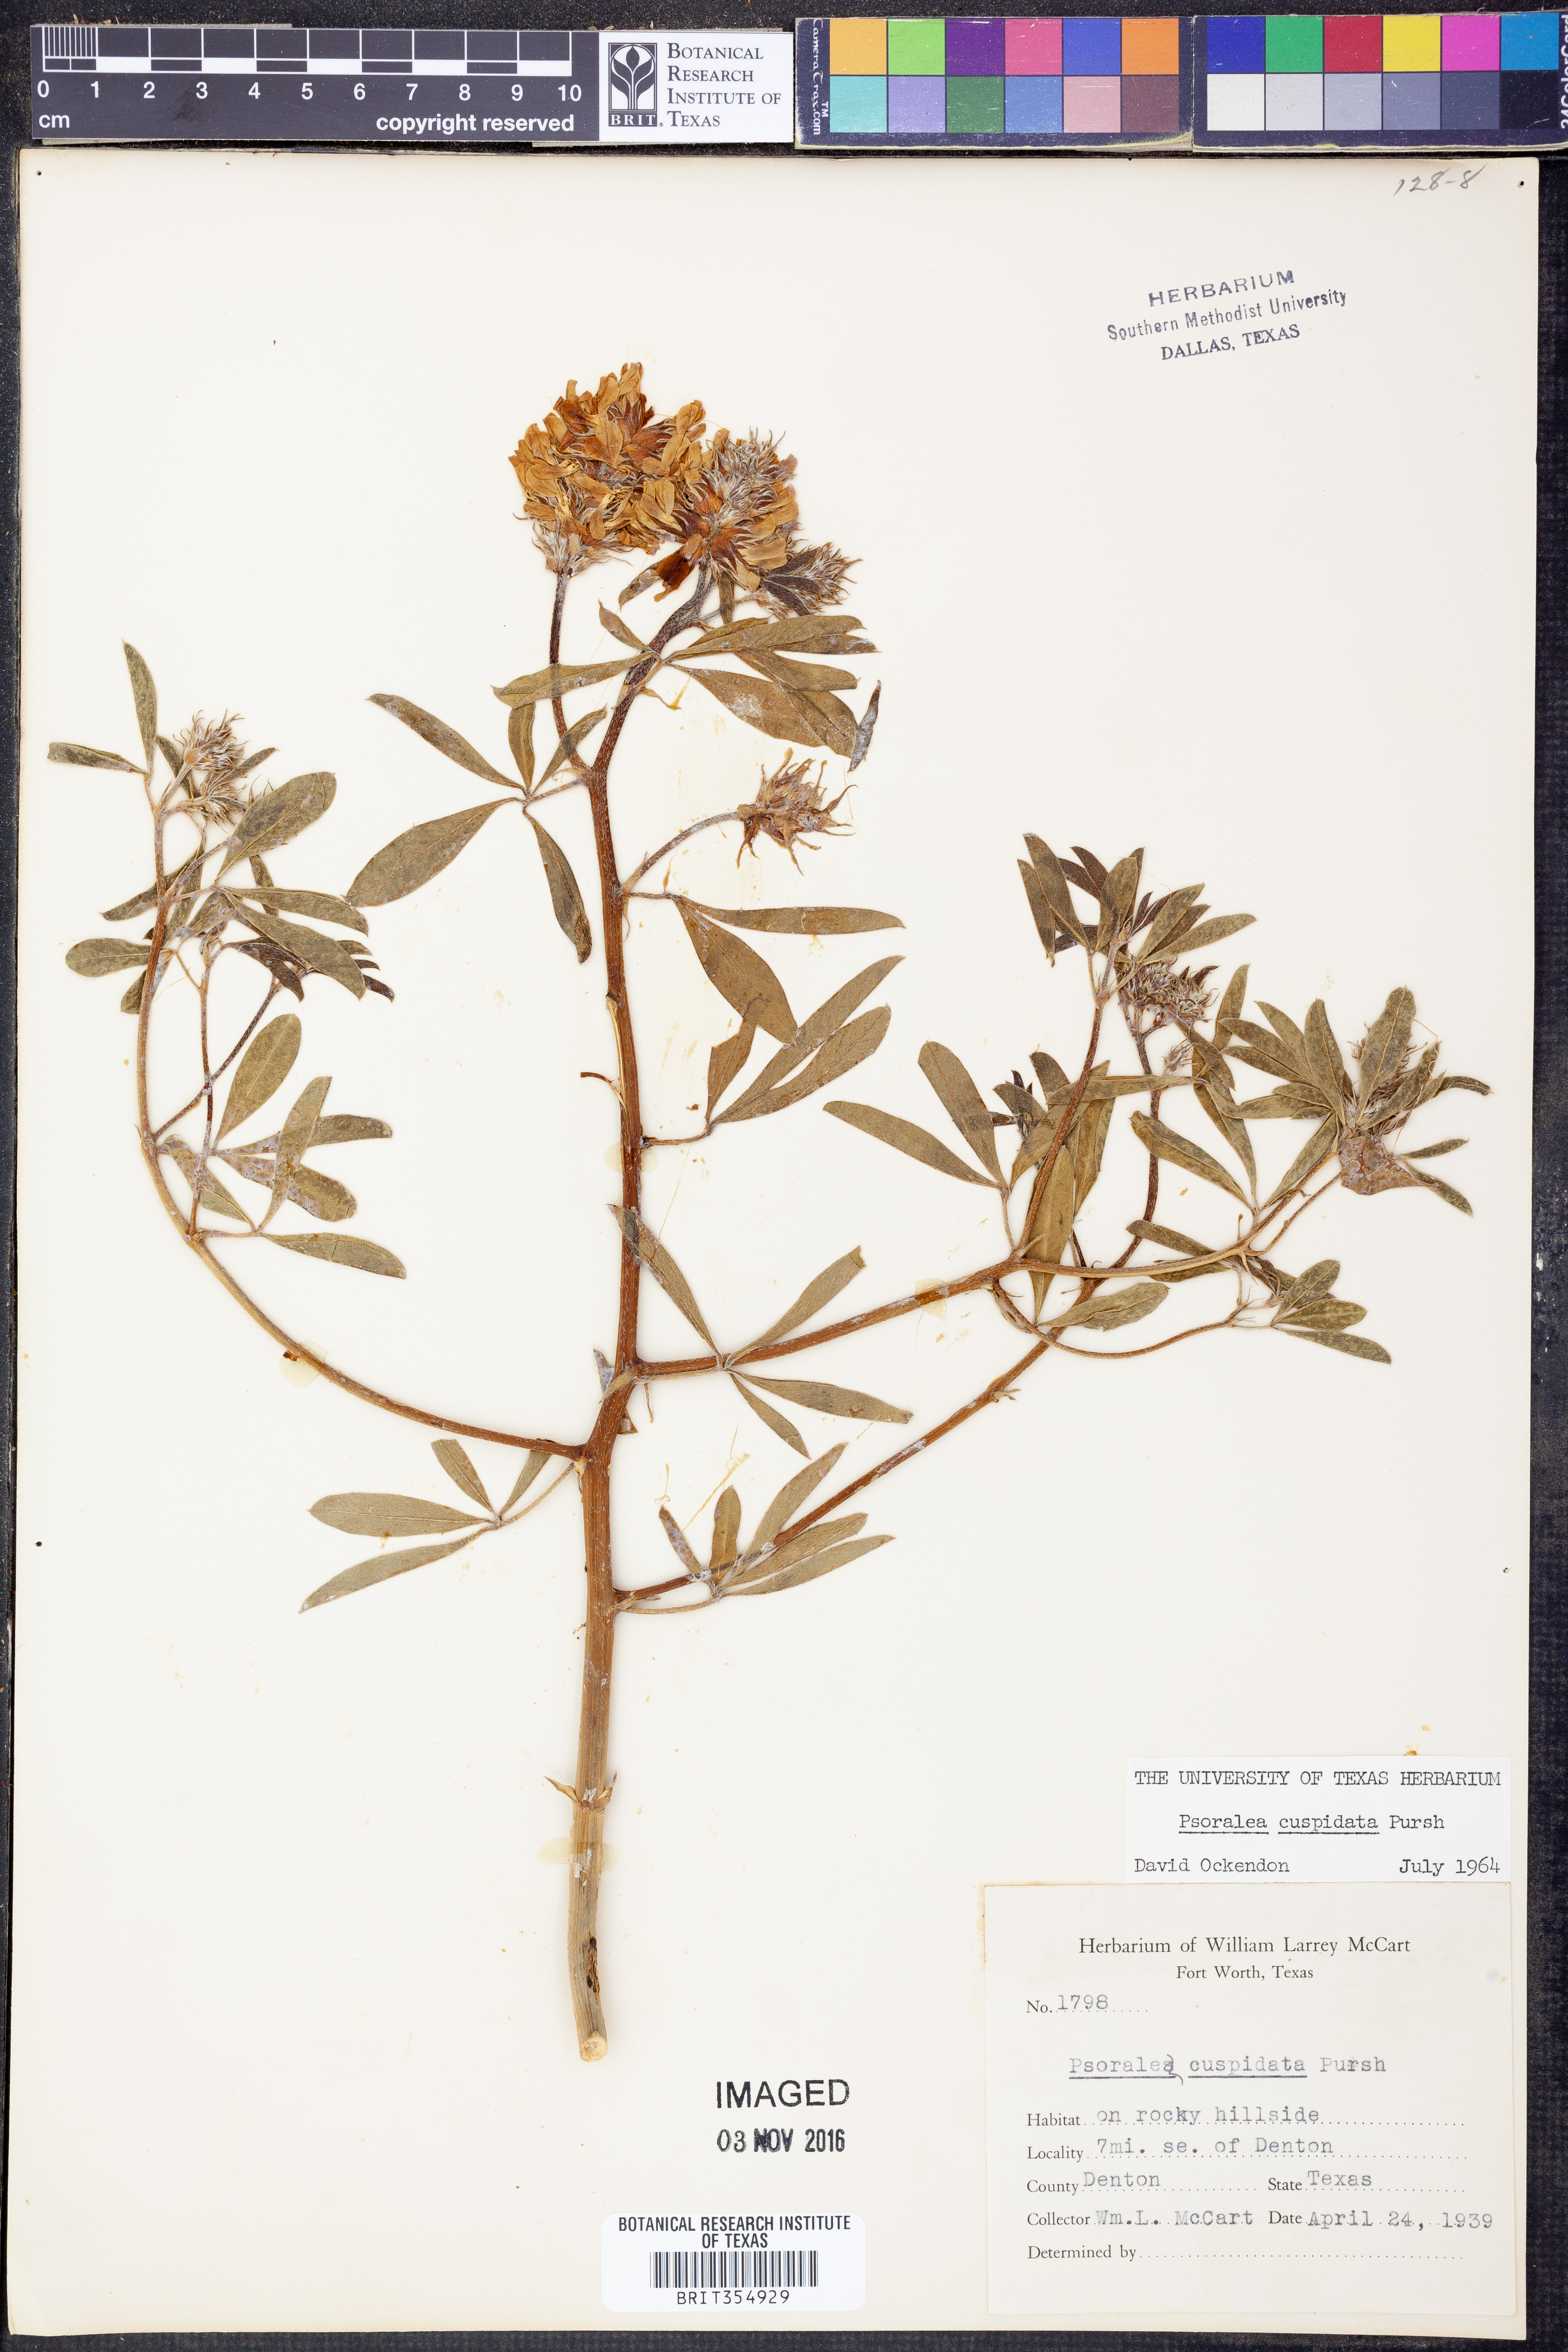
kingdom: Plantae
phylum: Tracheophyta
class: Magnoliopsida
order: Fabales
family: Fabaceae
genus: Pediomelum
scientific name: Pediomelum cuspidatum
